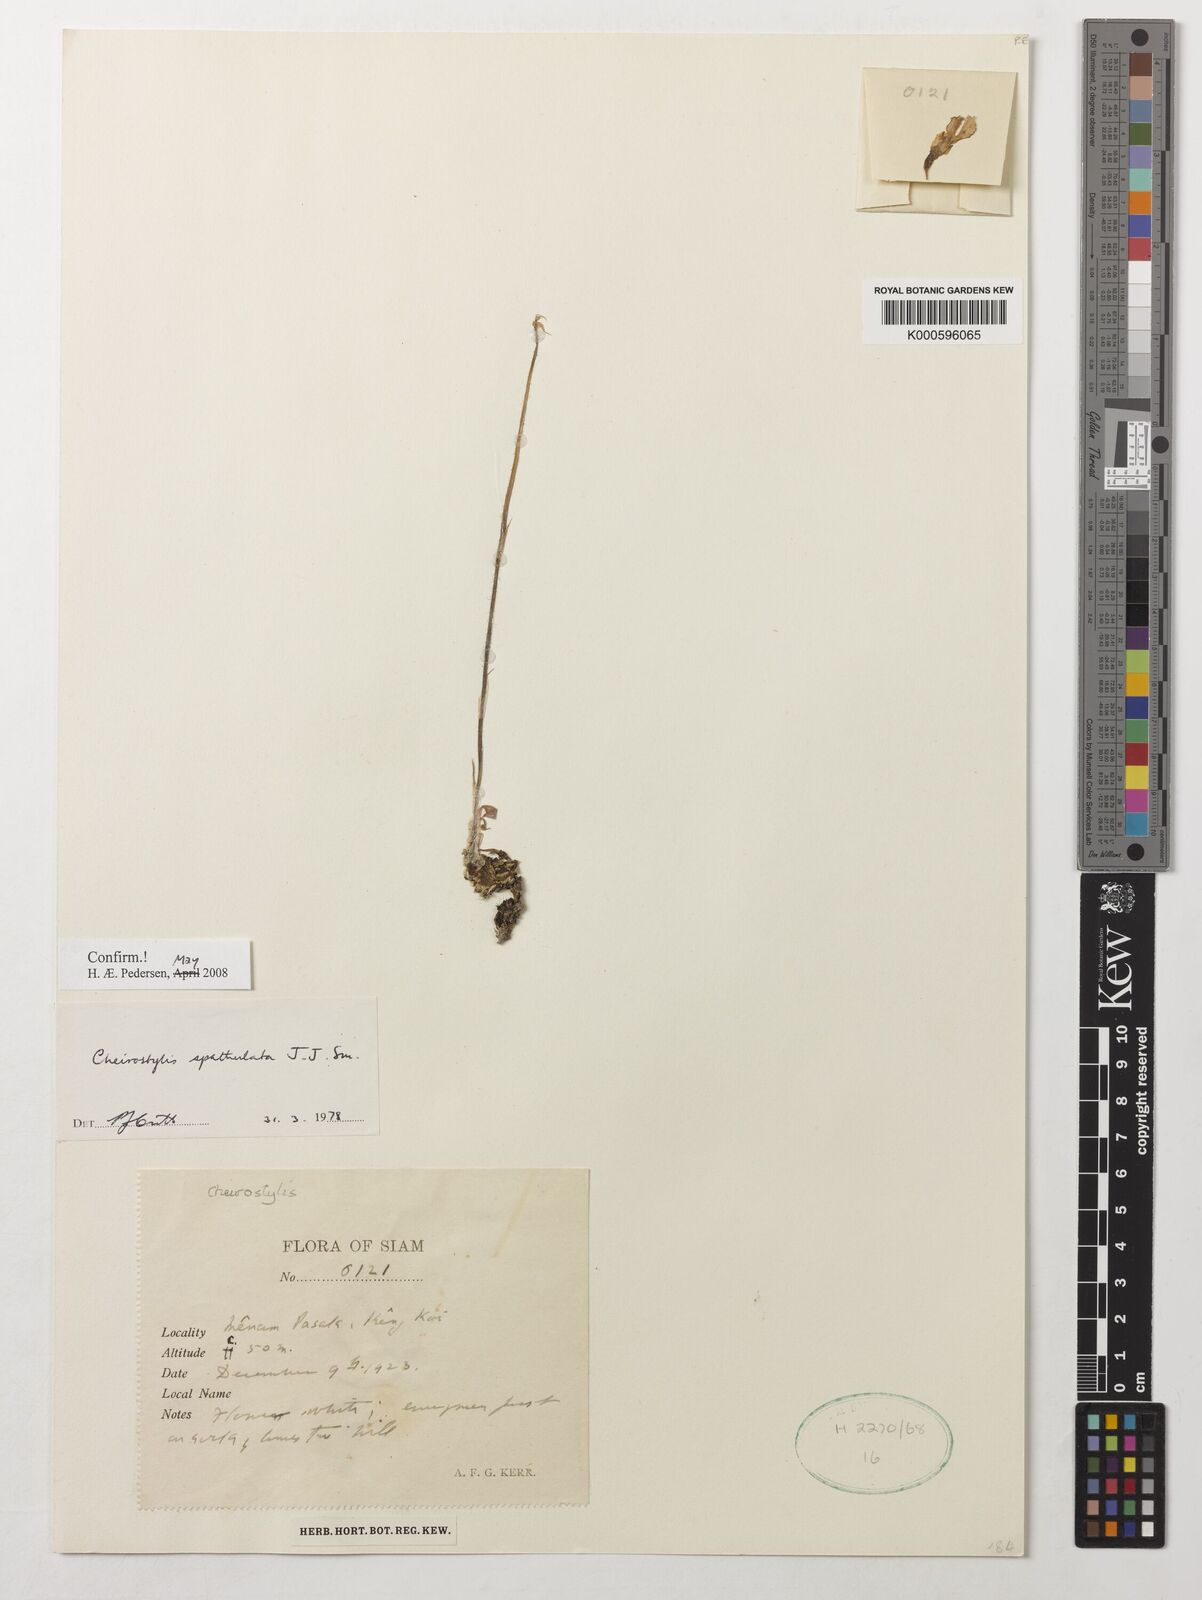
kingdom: Plantae
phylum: Tracheophyta
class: Liliopsida
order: Asparagales
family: Orchidaceae
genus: Cheirostylis
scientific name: Cheirostylis spathulata
